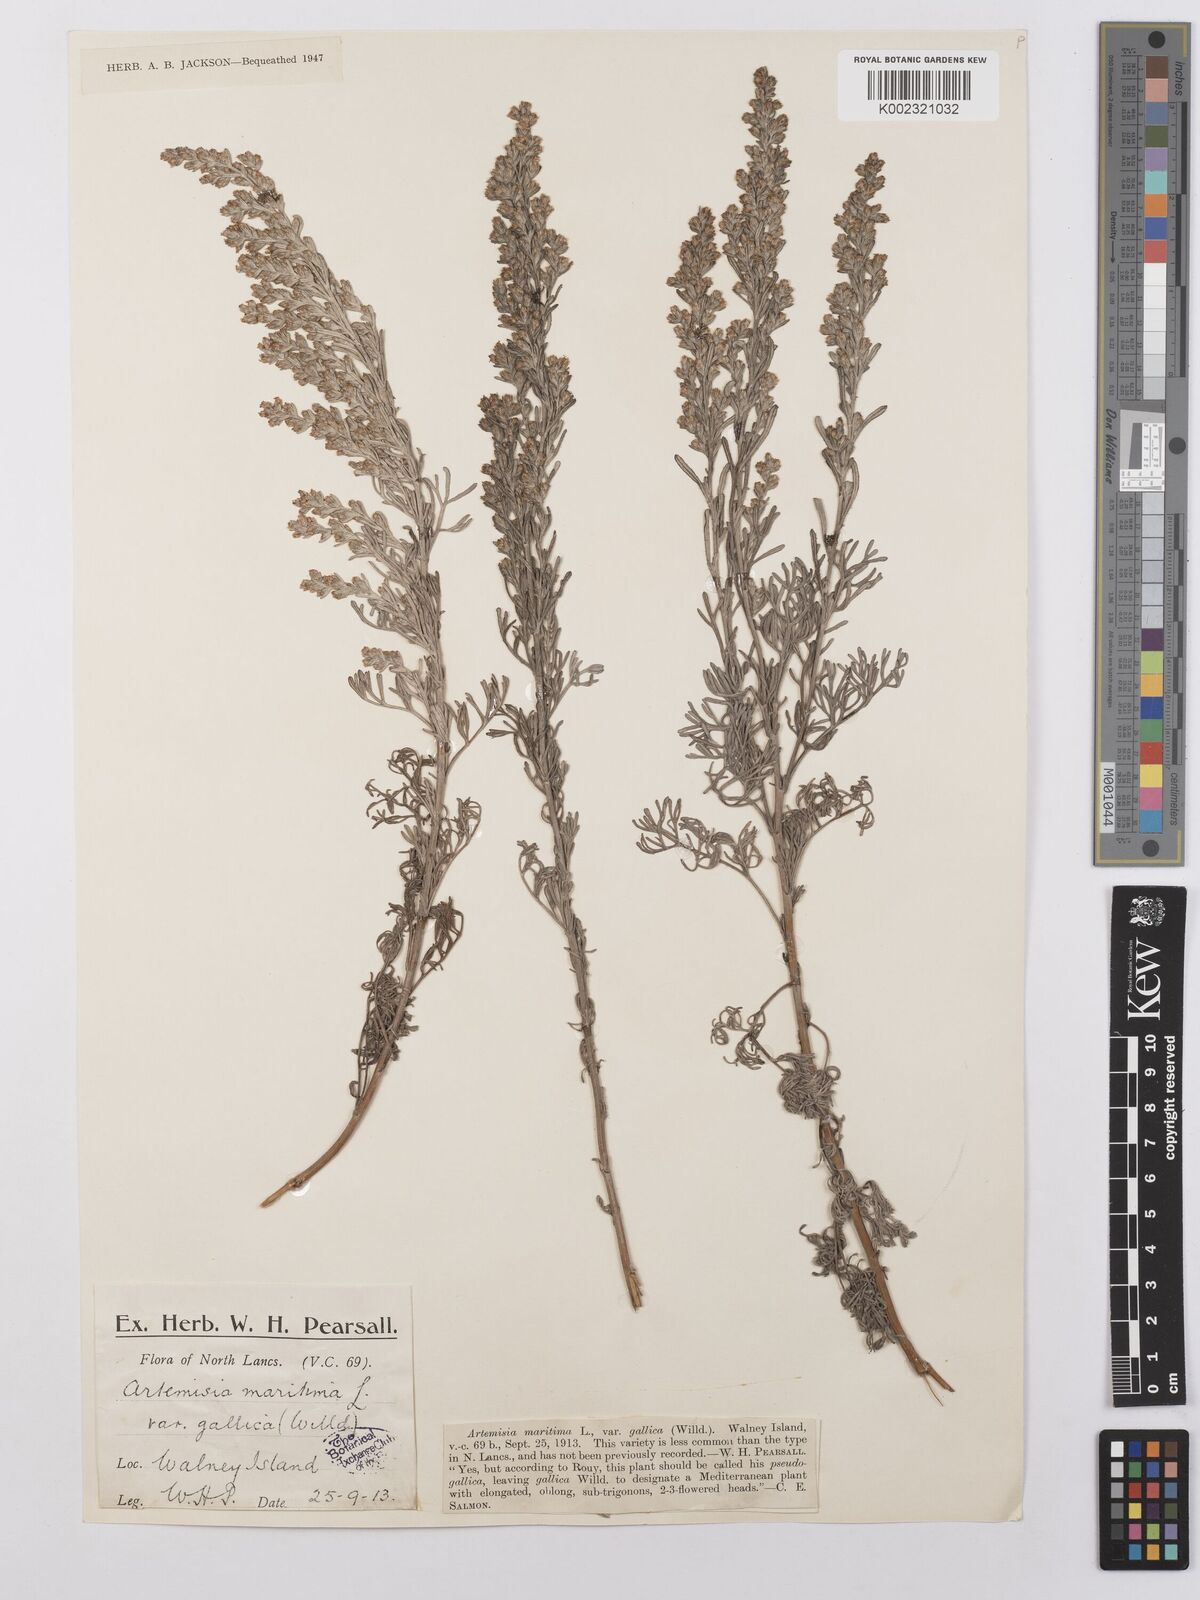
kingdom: Plantae
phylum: Tracheophyta
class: Magnoliopsida
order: Asterales
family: Asteraceae
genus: Artemisia
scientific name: Artemisia maritima
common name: Wormseed
